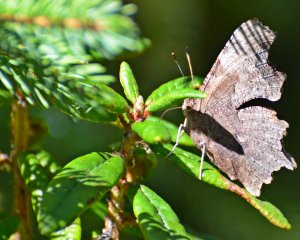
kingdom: Animalia
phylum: Arthropoda
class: Insecta
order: Lepidoptera
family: Nymphalidae
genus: Polygonia
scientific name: Polygonia progne
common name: Gray Comma
